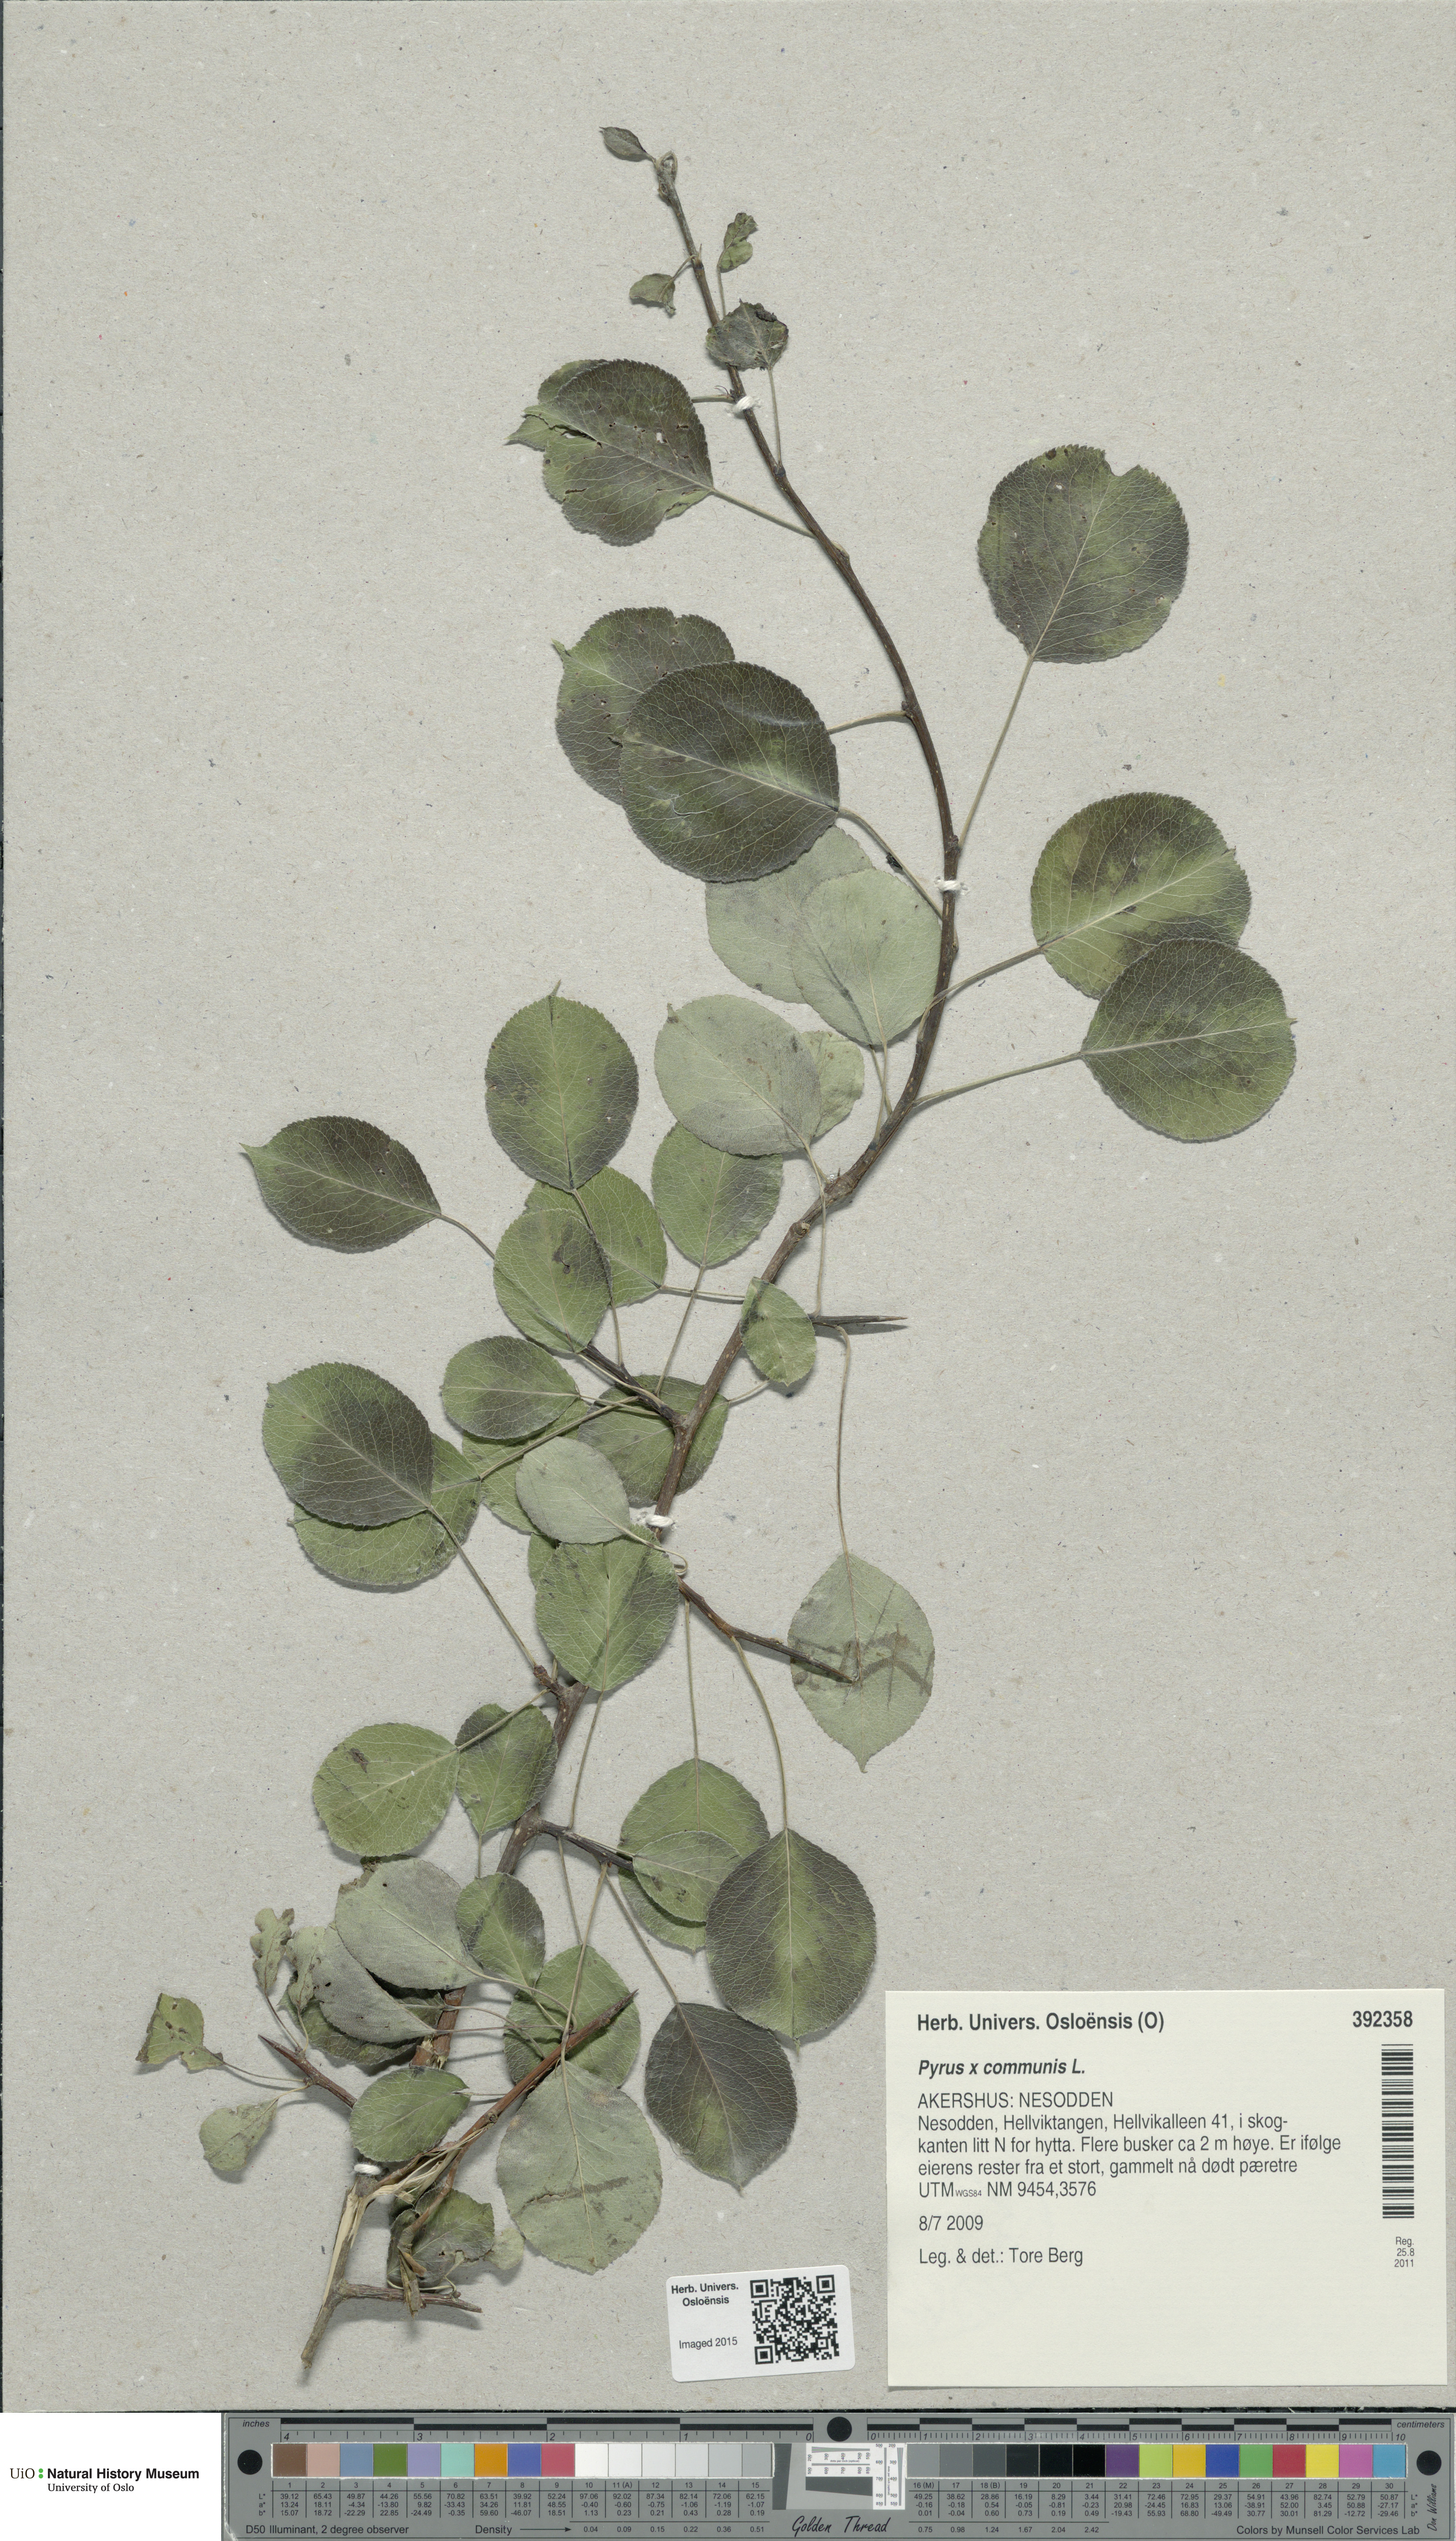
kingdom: Plantae
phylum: Tracheophyta
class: Magnoliopsida
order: Rosales
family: Rosaceae
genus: Pyrus
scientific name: Pyrus communis
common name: Pear
